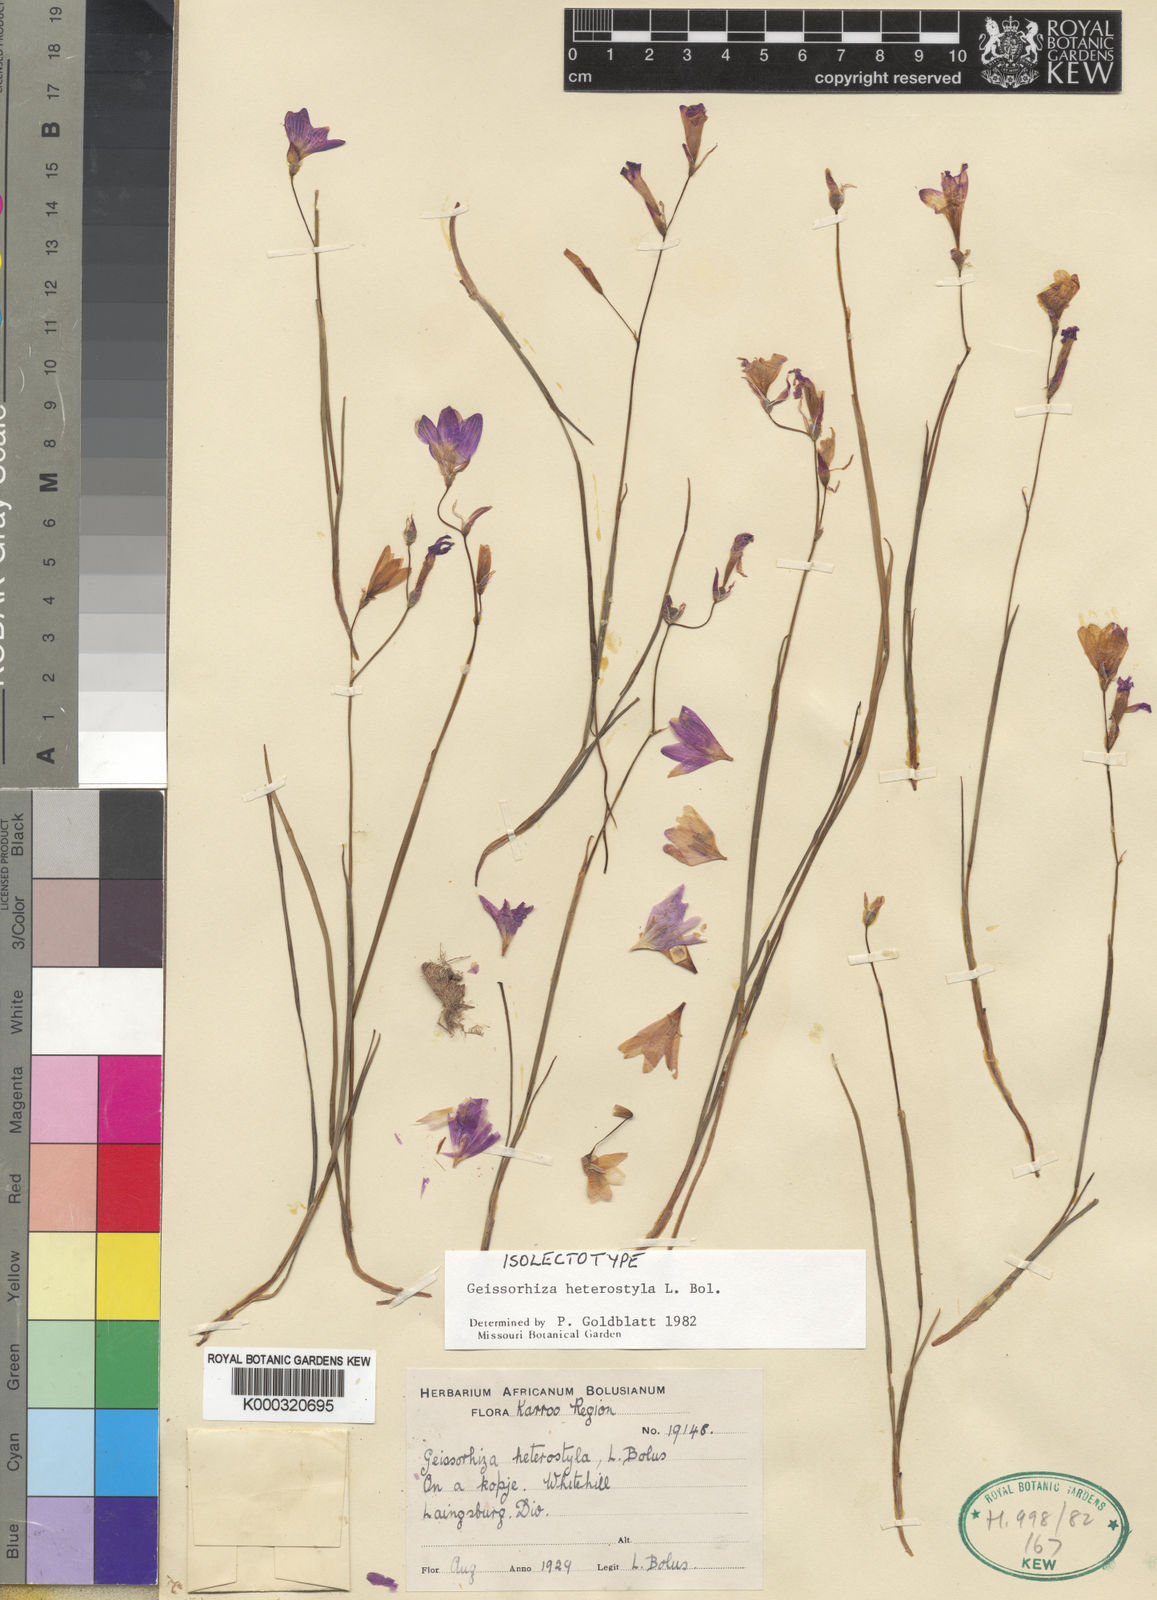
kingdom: Plantae
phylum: Tracheophyta
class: Liliopsida
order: Asparagales
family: Iridaceae
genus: Geissorhiza
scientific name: Geissorhiza heterostyla
